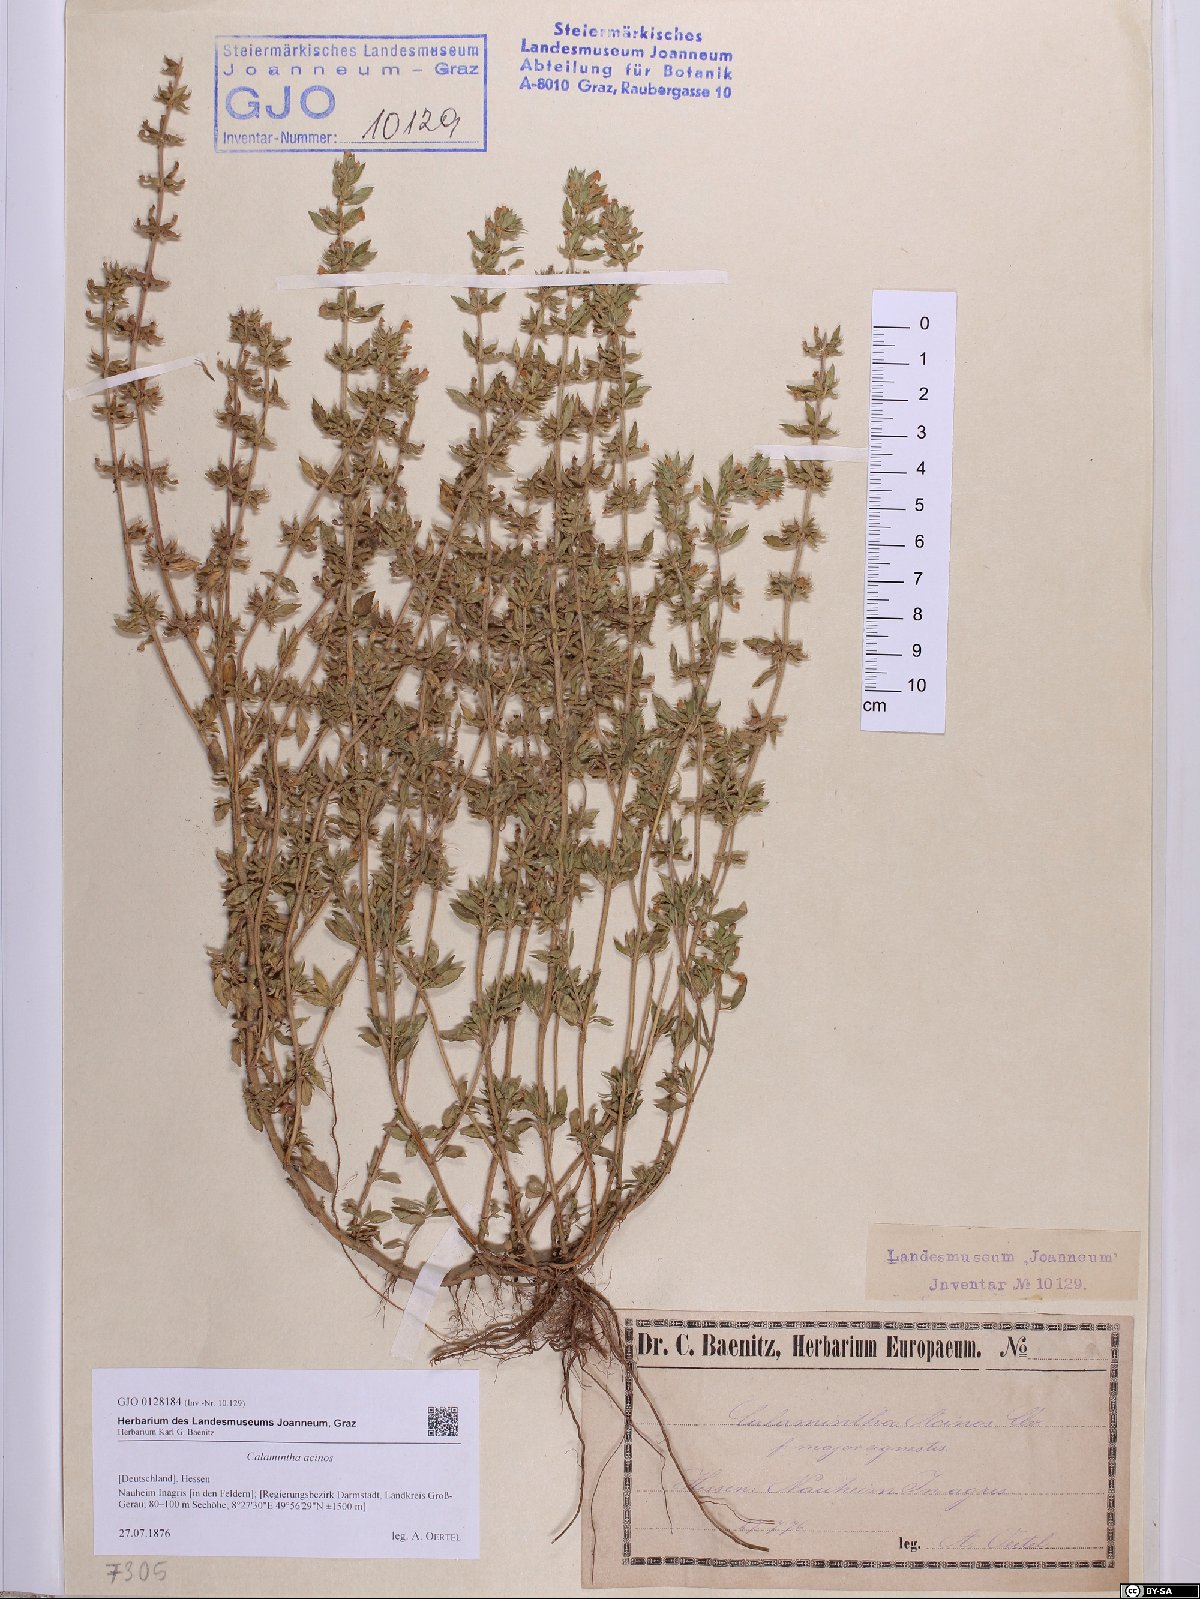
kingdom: Plantae
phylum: Tracheophyta
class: Magnoliopsida
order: Lamiales
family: Lamiaceae
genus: Clinopodium
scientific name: Clinopodium acinos
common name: Basil thyme
